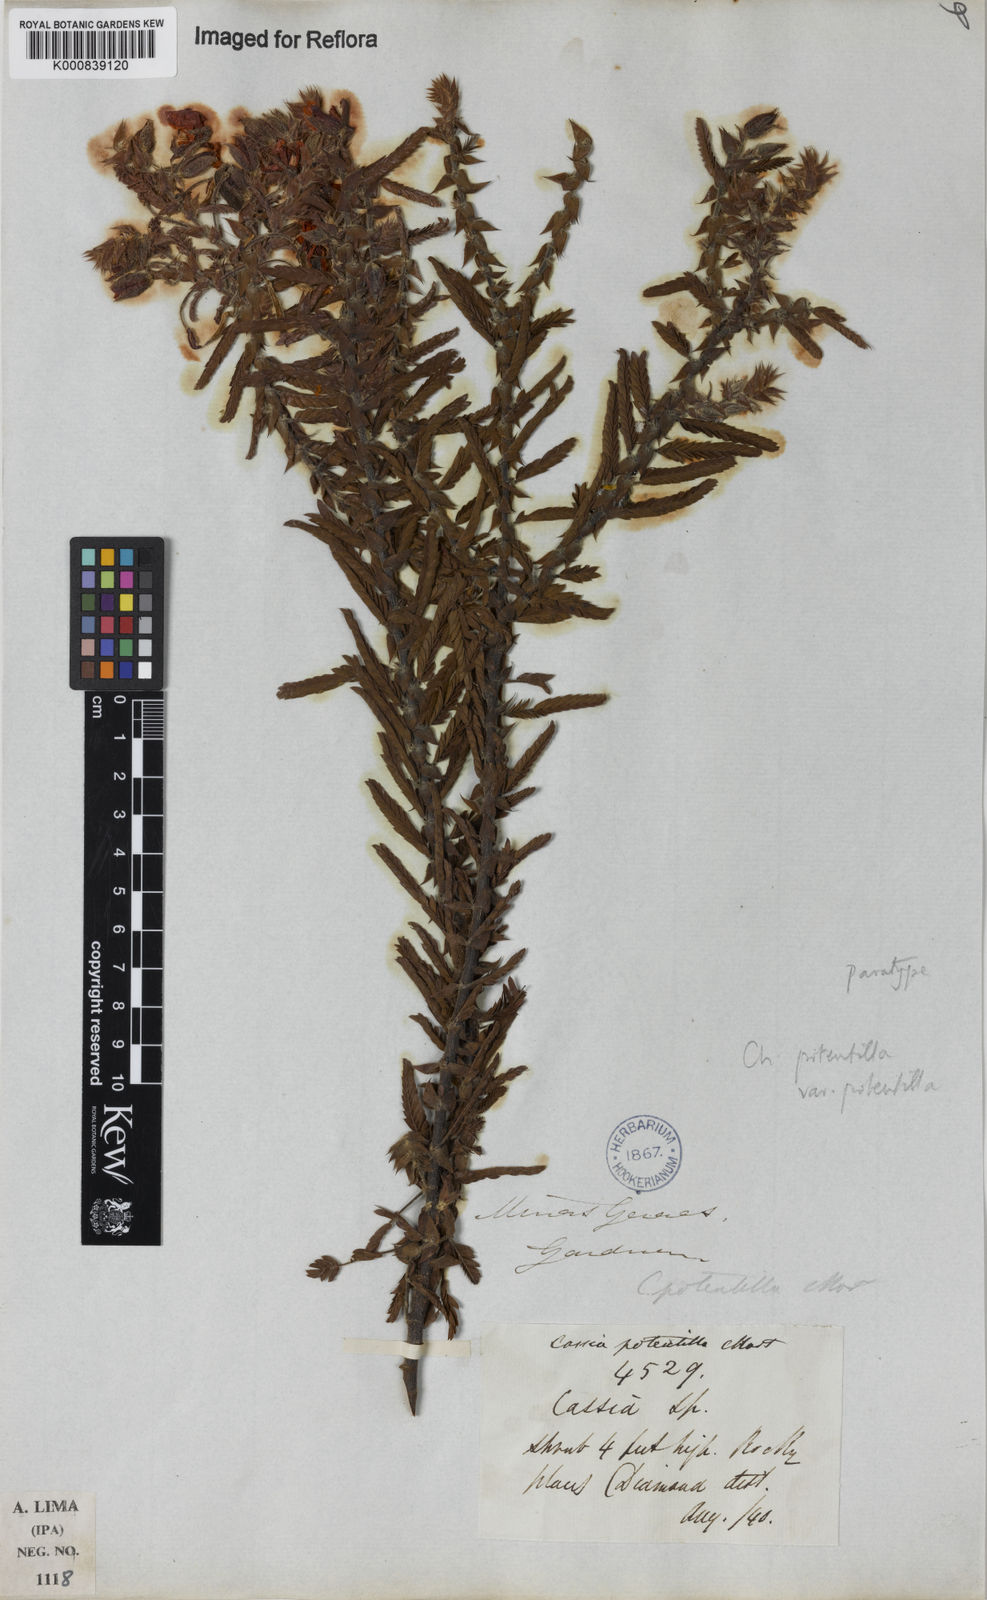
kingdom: Plantae
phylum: Tracheophyta
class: Magnoliopsida
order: Fabales
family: Fabaceae
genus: Chamaecrista
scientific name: Chamaecrista potentilla
